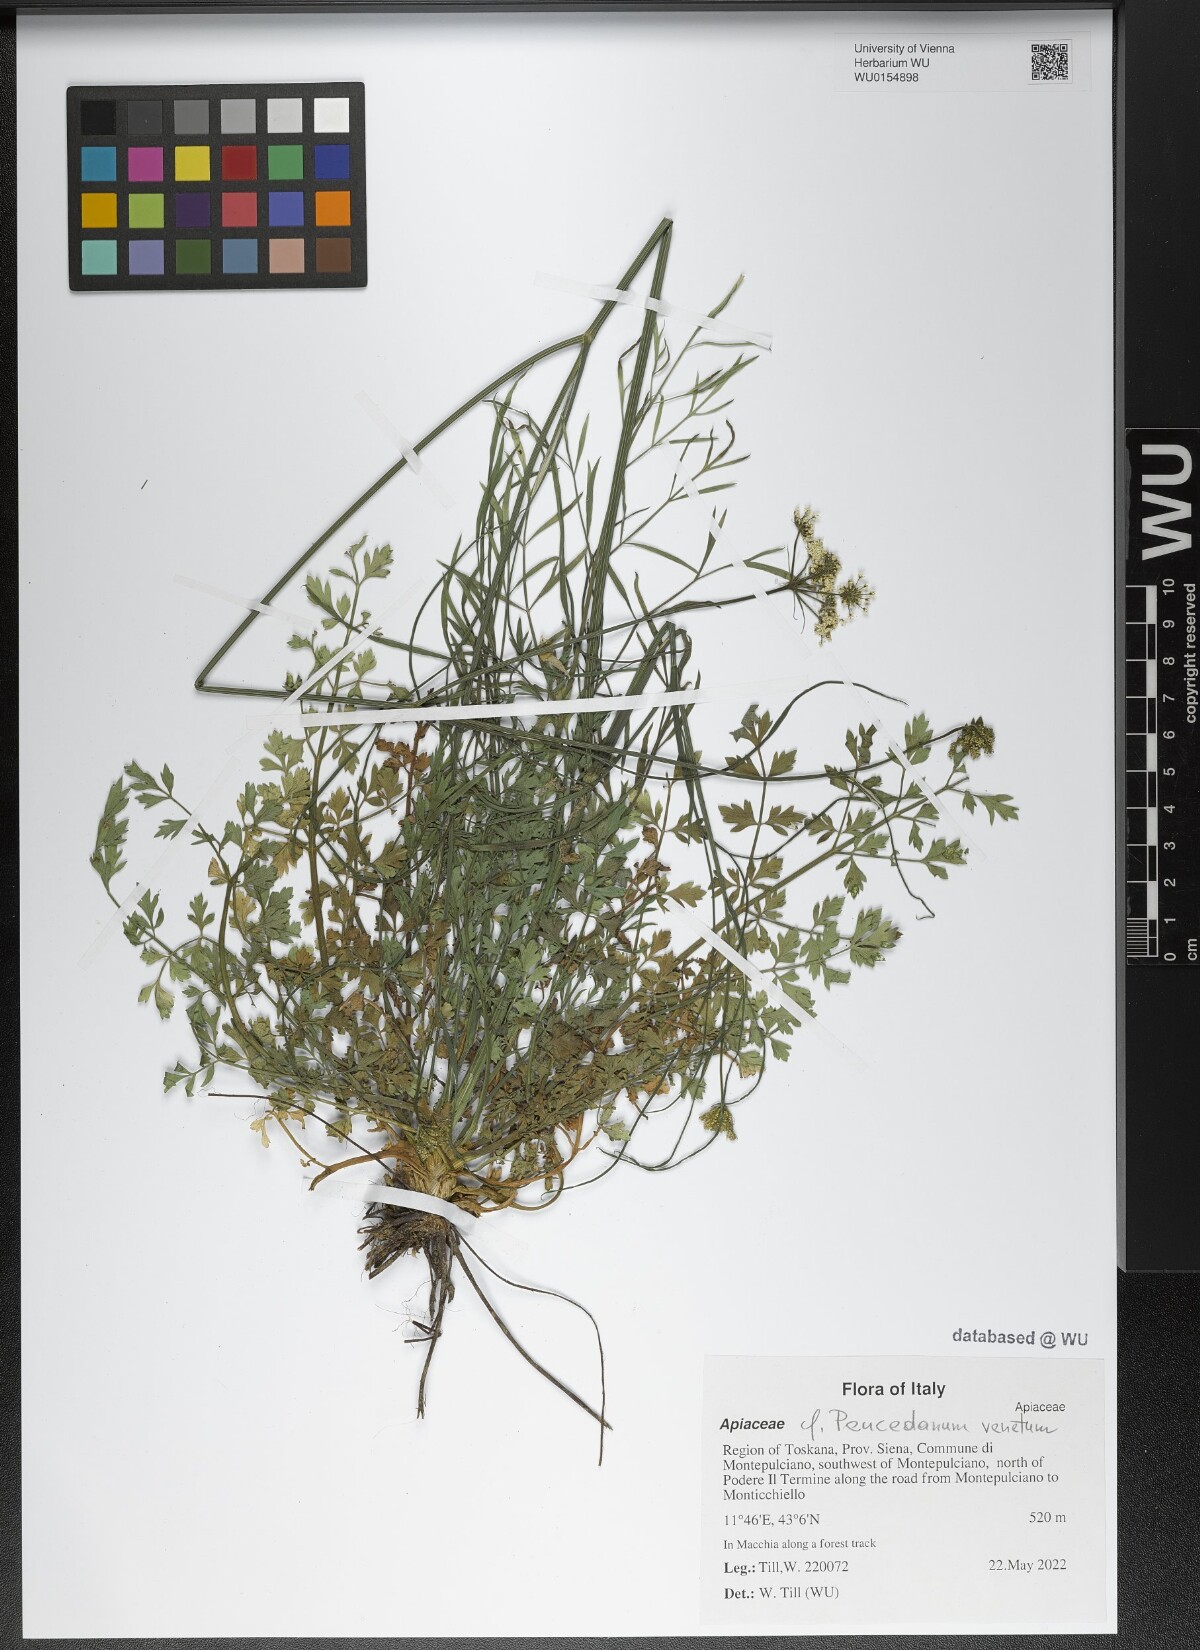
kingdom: Plantae
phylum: Tracheophyta
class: Magnoliopsida
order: Apiales
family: Apiaceae
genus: Xanthoselinum
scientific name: Xanthoselinum alsaticum
